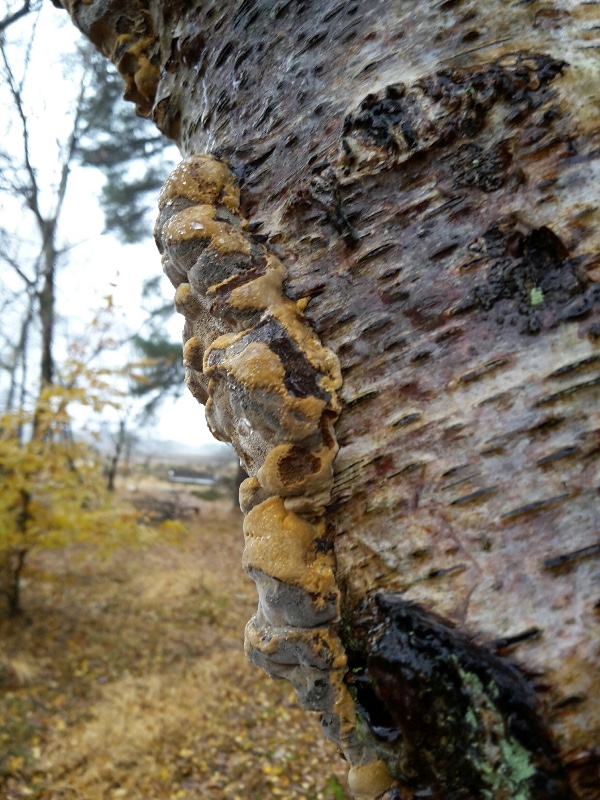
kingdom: Fungi
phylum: Basidiomycota
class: Agaricomycetes
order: Hymenochaetales
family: Hymenochaetaceae
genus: Xanthoporia
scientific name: Xanthoporia radiata
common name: elle-spejlporesvamp
